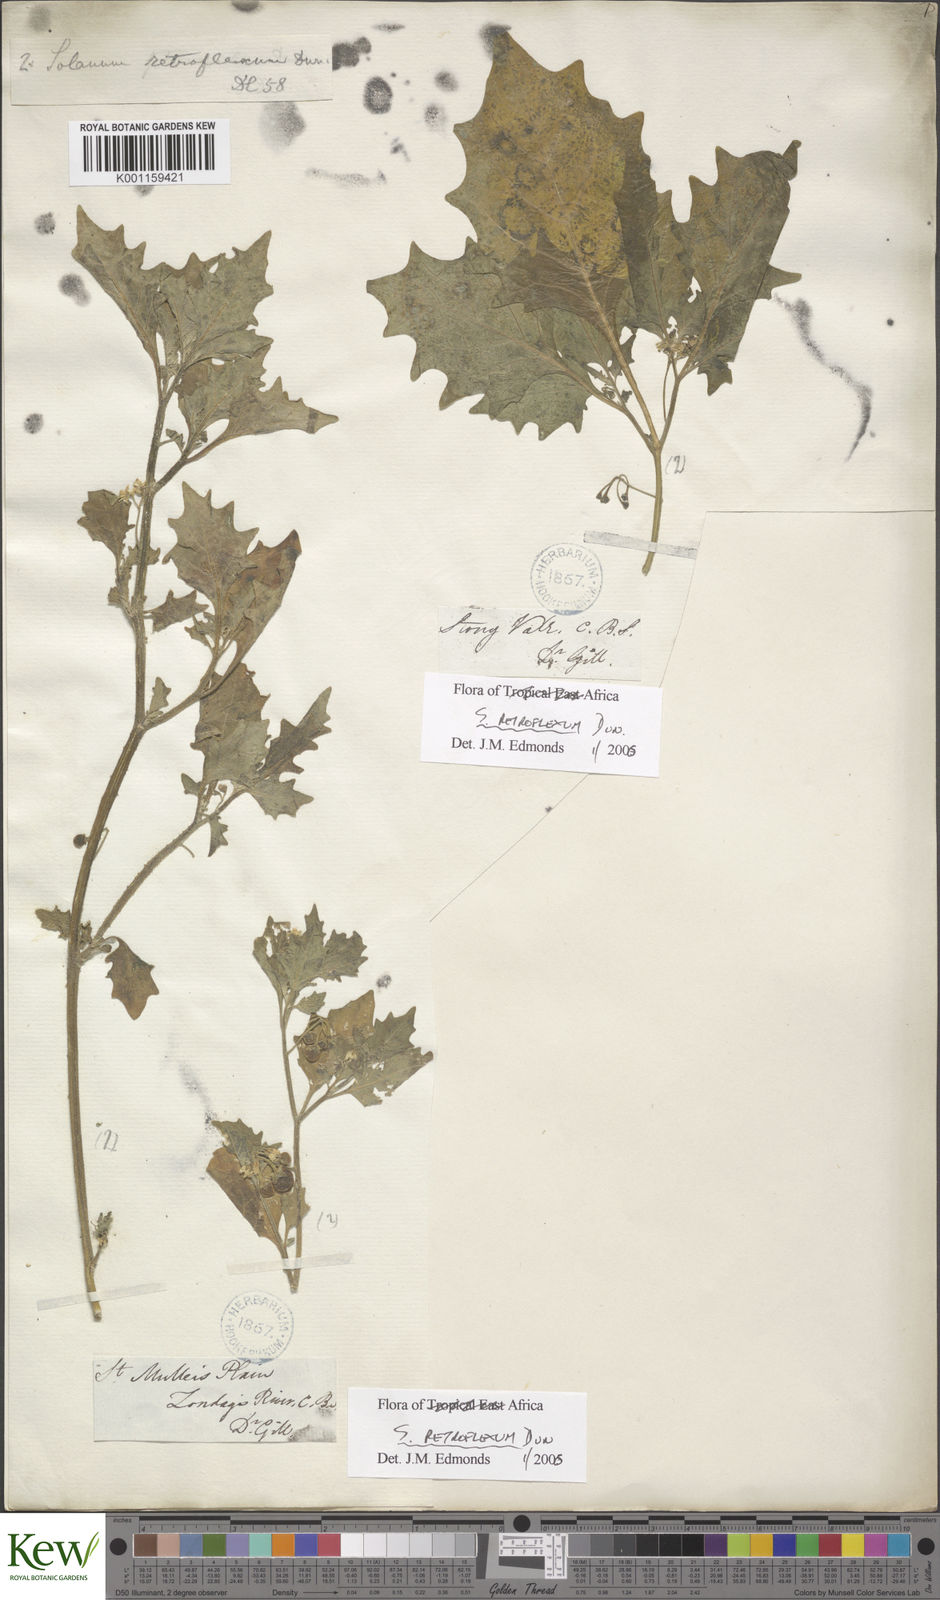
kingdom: Plantae
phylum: Tracheophyta
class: Magnoliopsida
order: Solanales
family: Solanaceae
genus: Solanum
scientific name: Solanum retroflexum
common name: Wonderberry
